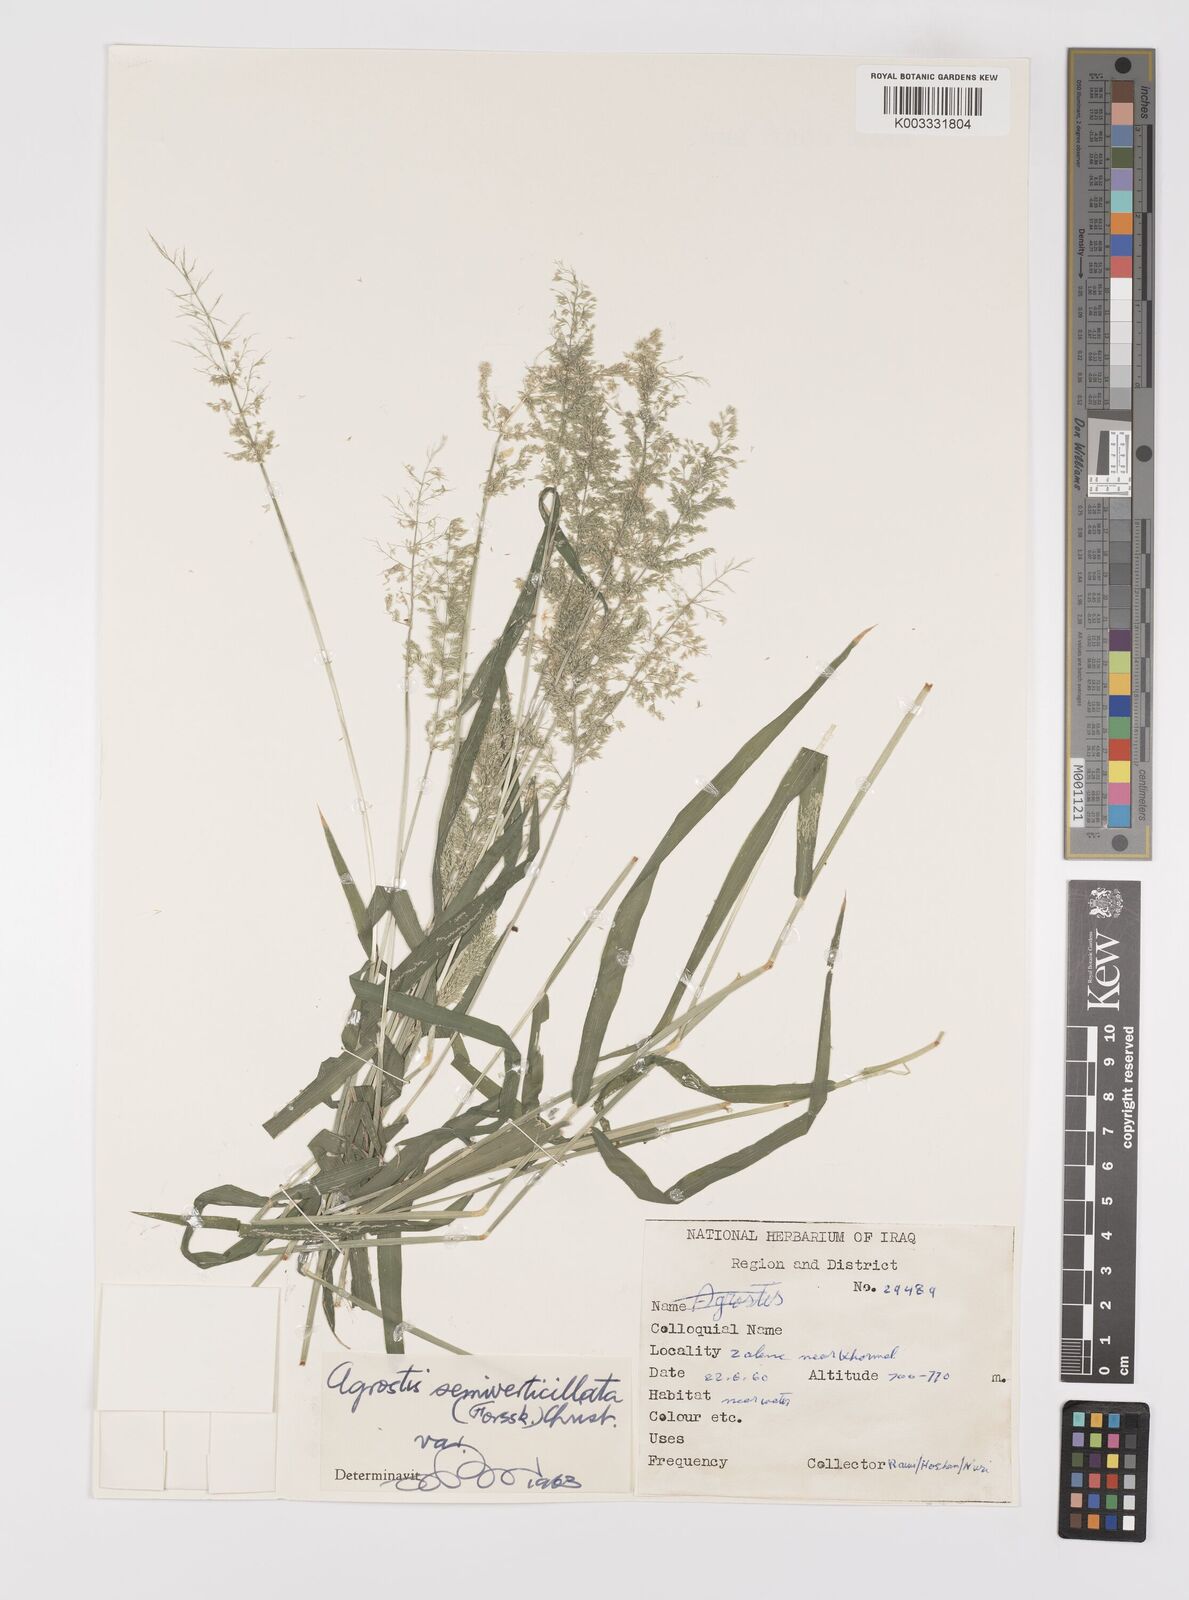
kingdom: Plantae
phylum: Tracheophyta
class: Liliopsida
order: Poales
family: Poaceae
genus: Polypogon
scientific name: Polypogon viridis
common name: Water bent
